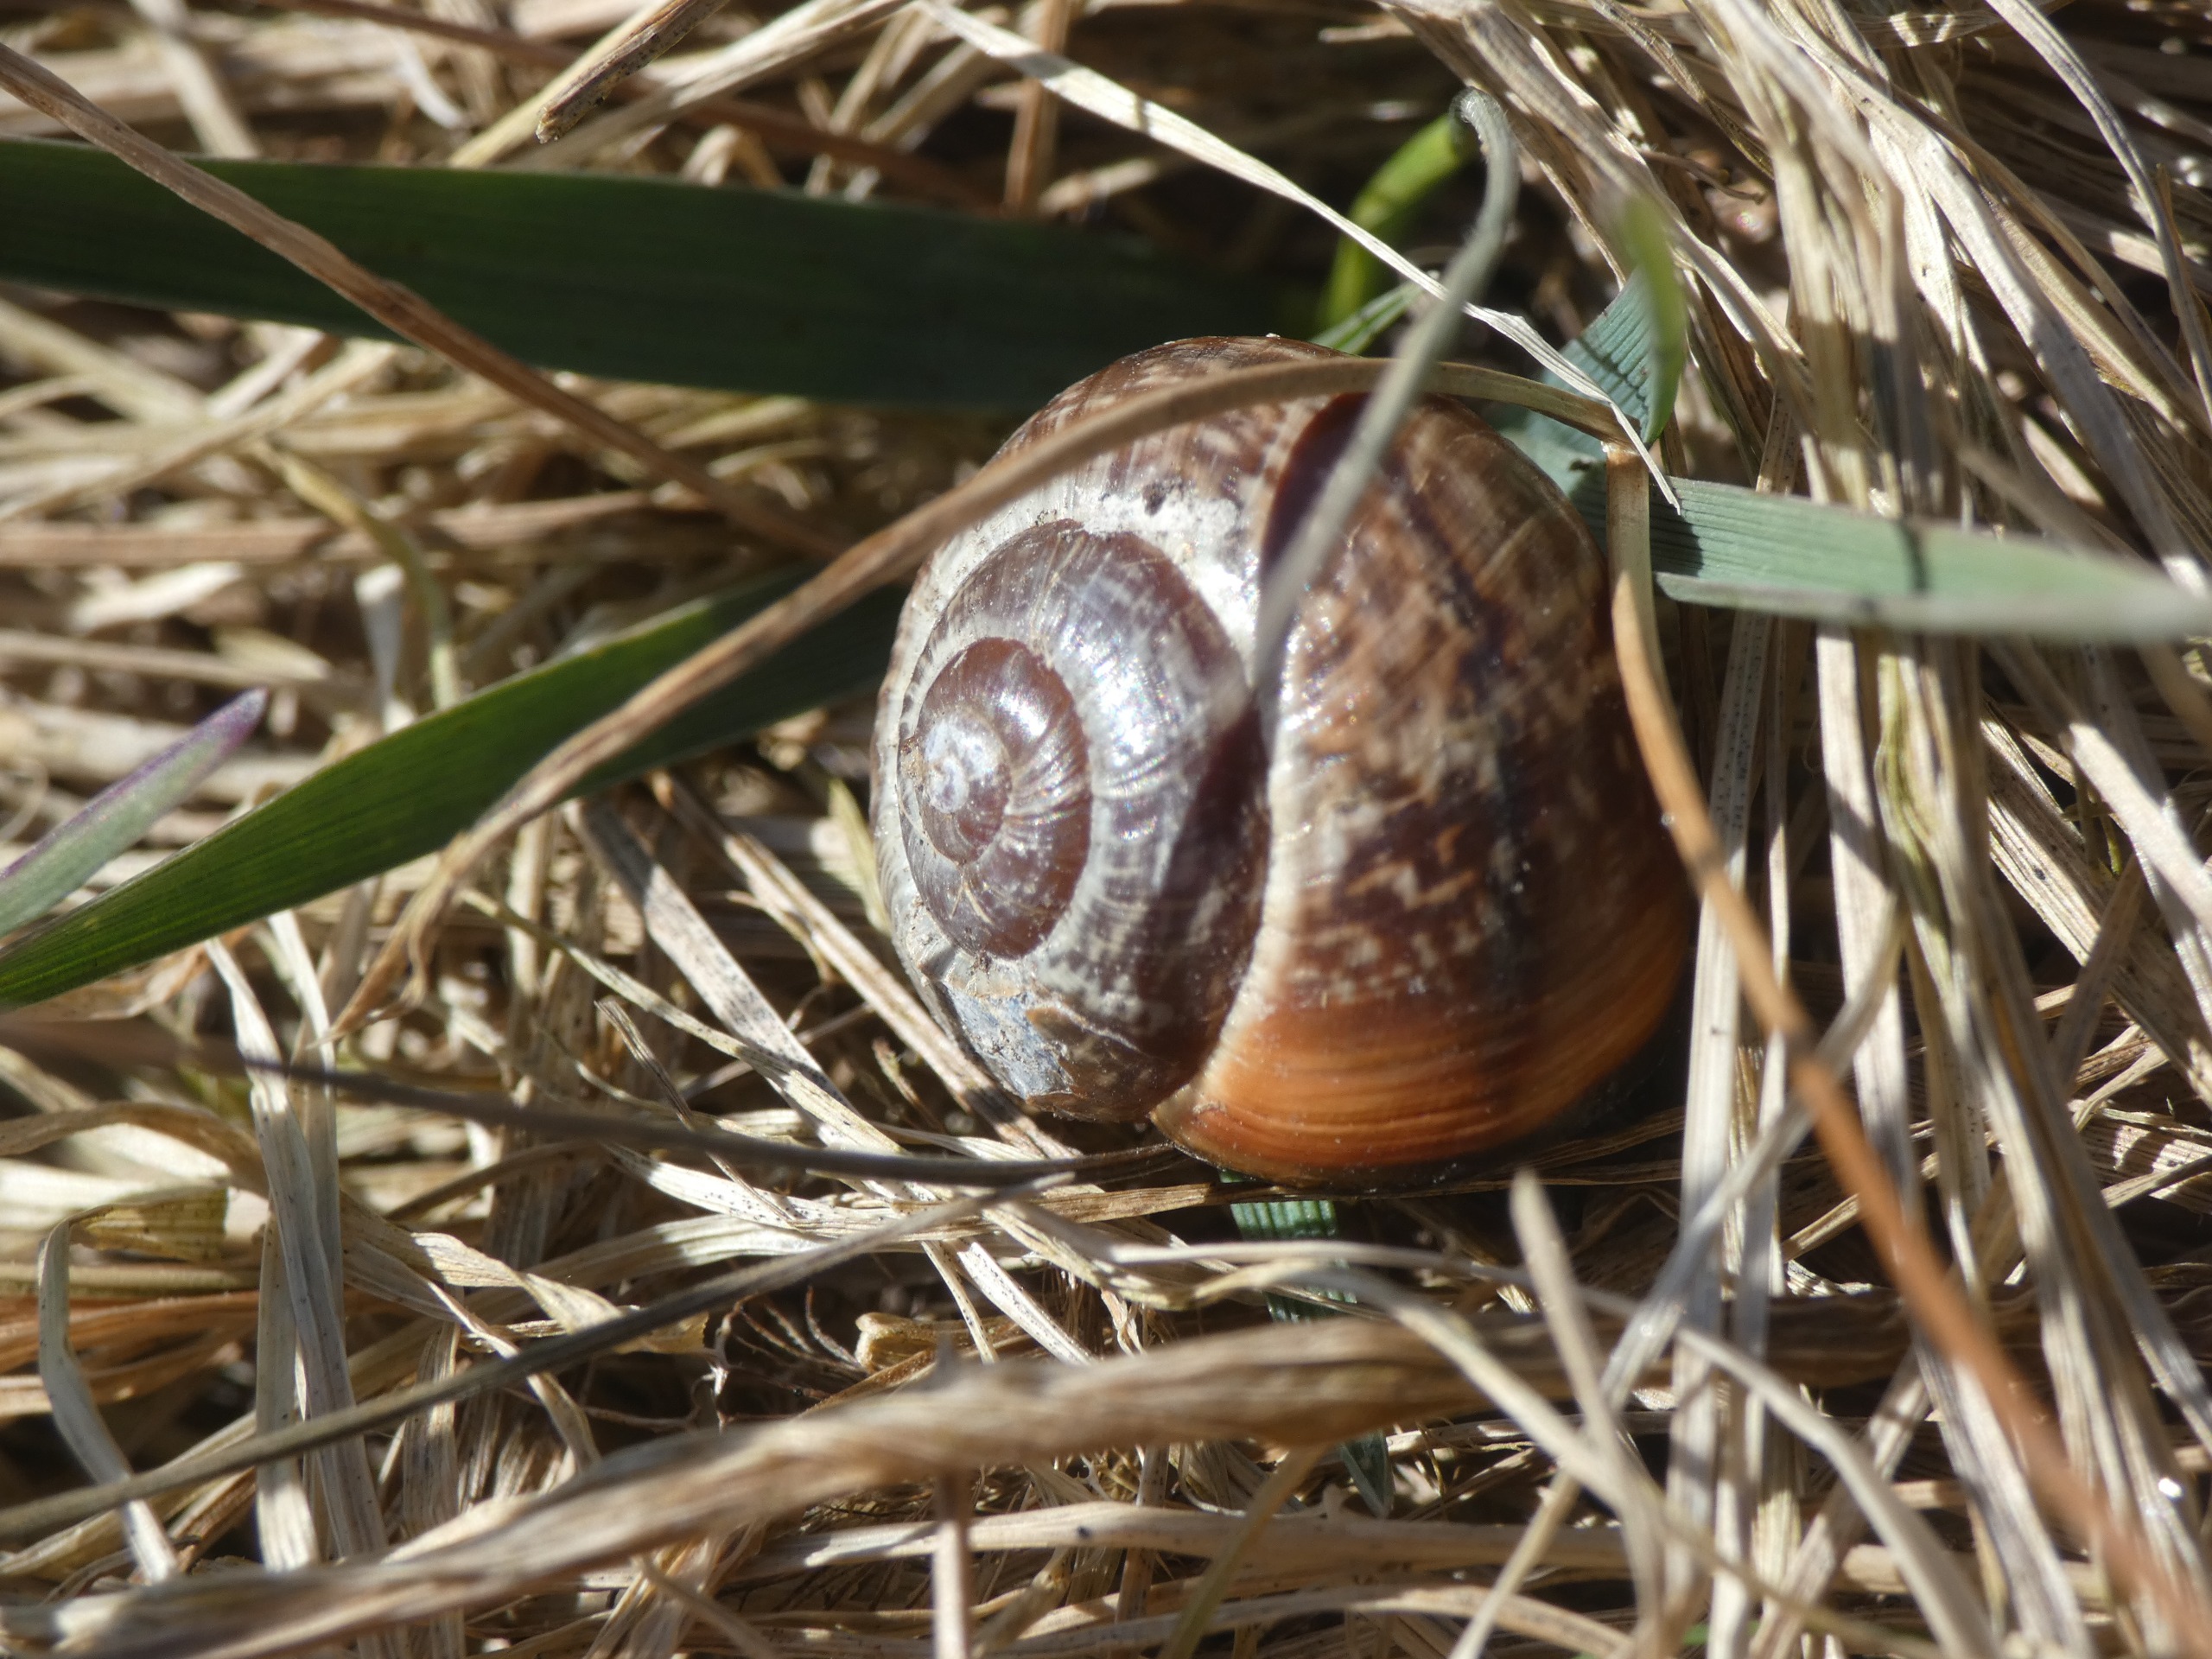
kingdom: Animalia
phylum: Mollusca
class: Gastropoda
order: Stylommatophora
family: Helicidae
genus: Arianta
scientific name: Arianta arbustorum
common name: Kratsnegl
